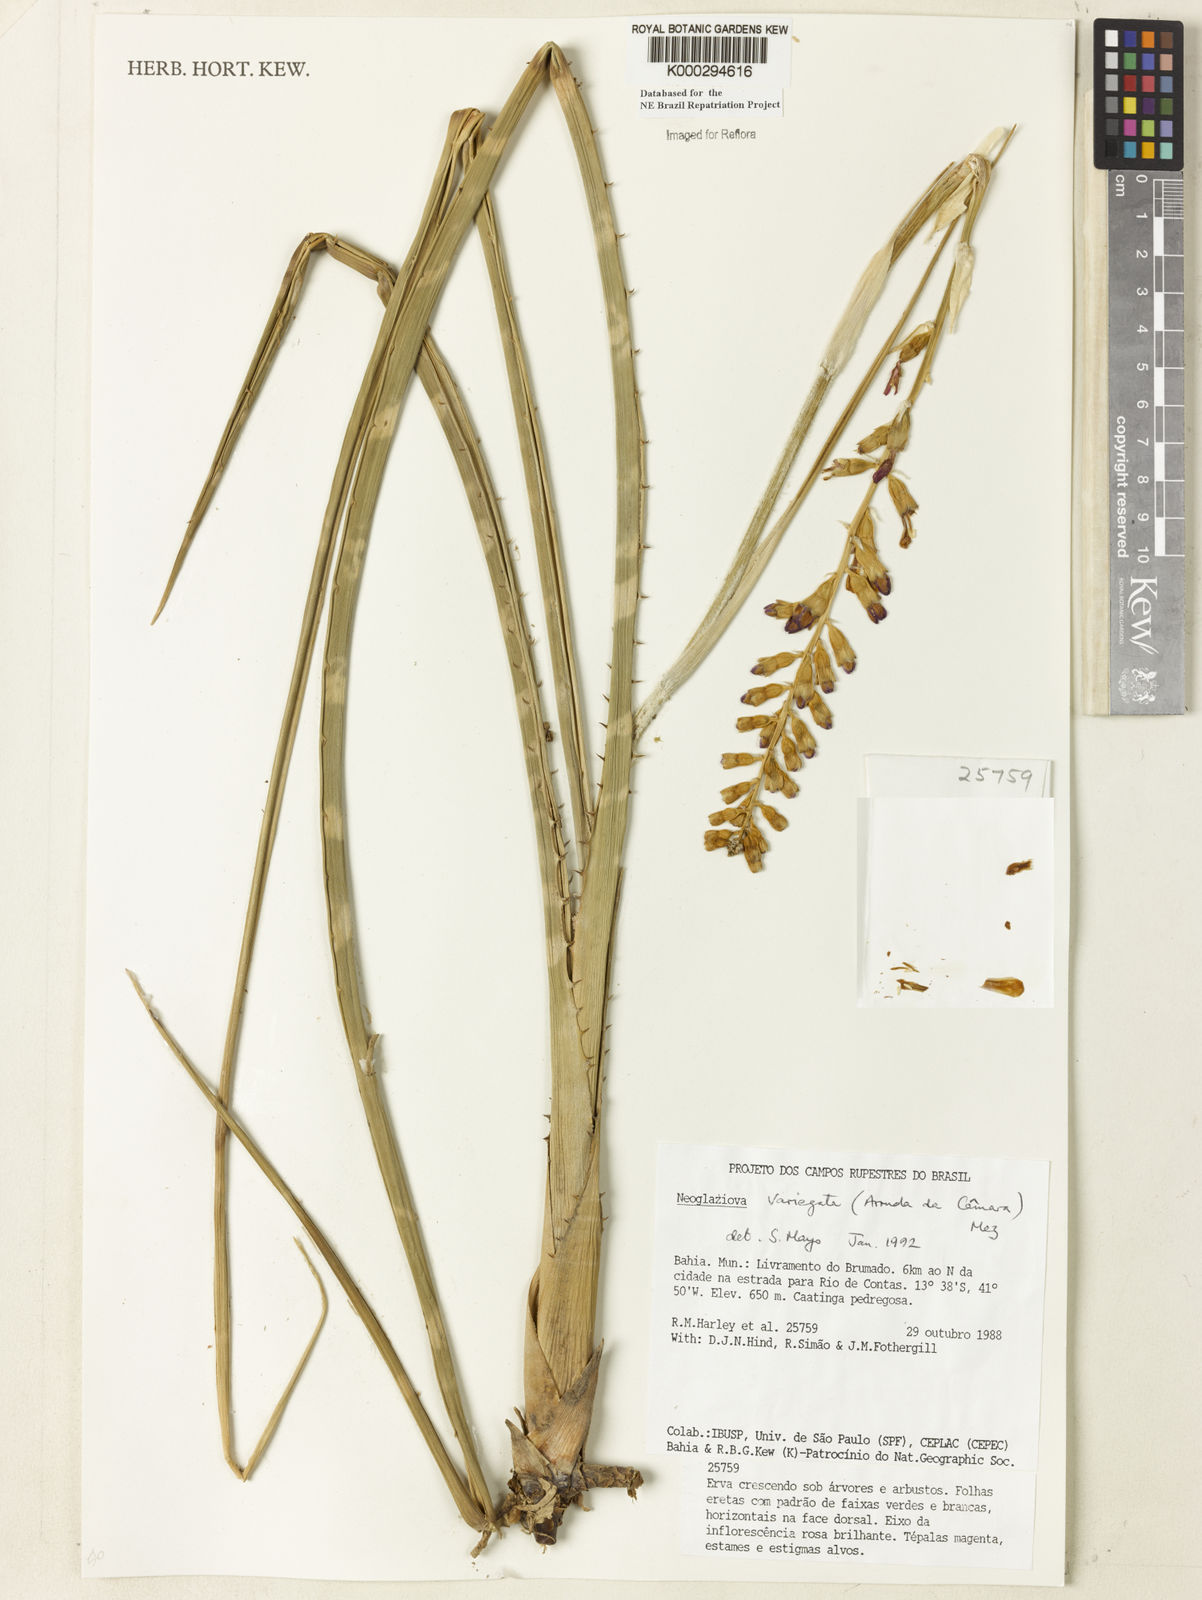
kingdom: Plantae
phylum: Tracheophyta
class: Liliopsida
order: Poales
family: Bromeliaceae
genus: Neoglaziovia
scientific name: Neoglaziovia variegata
